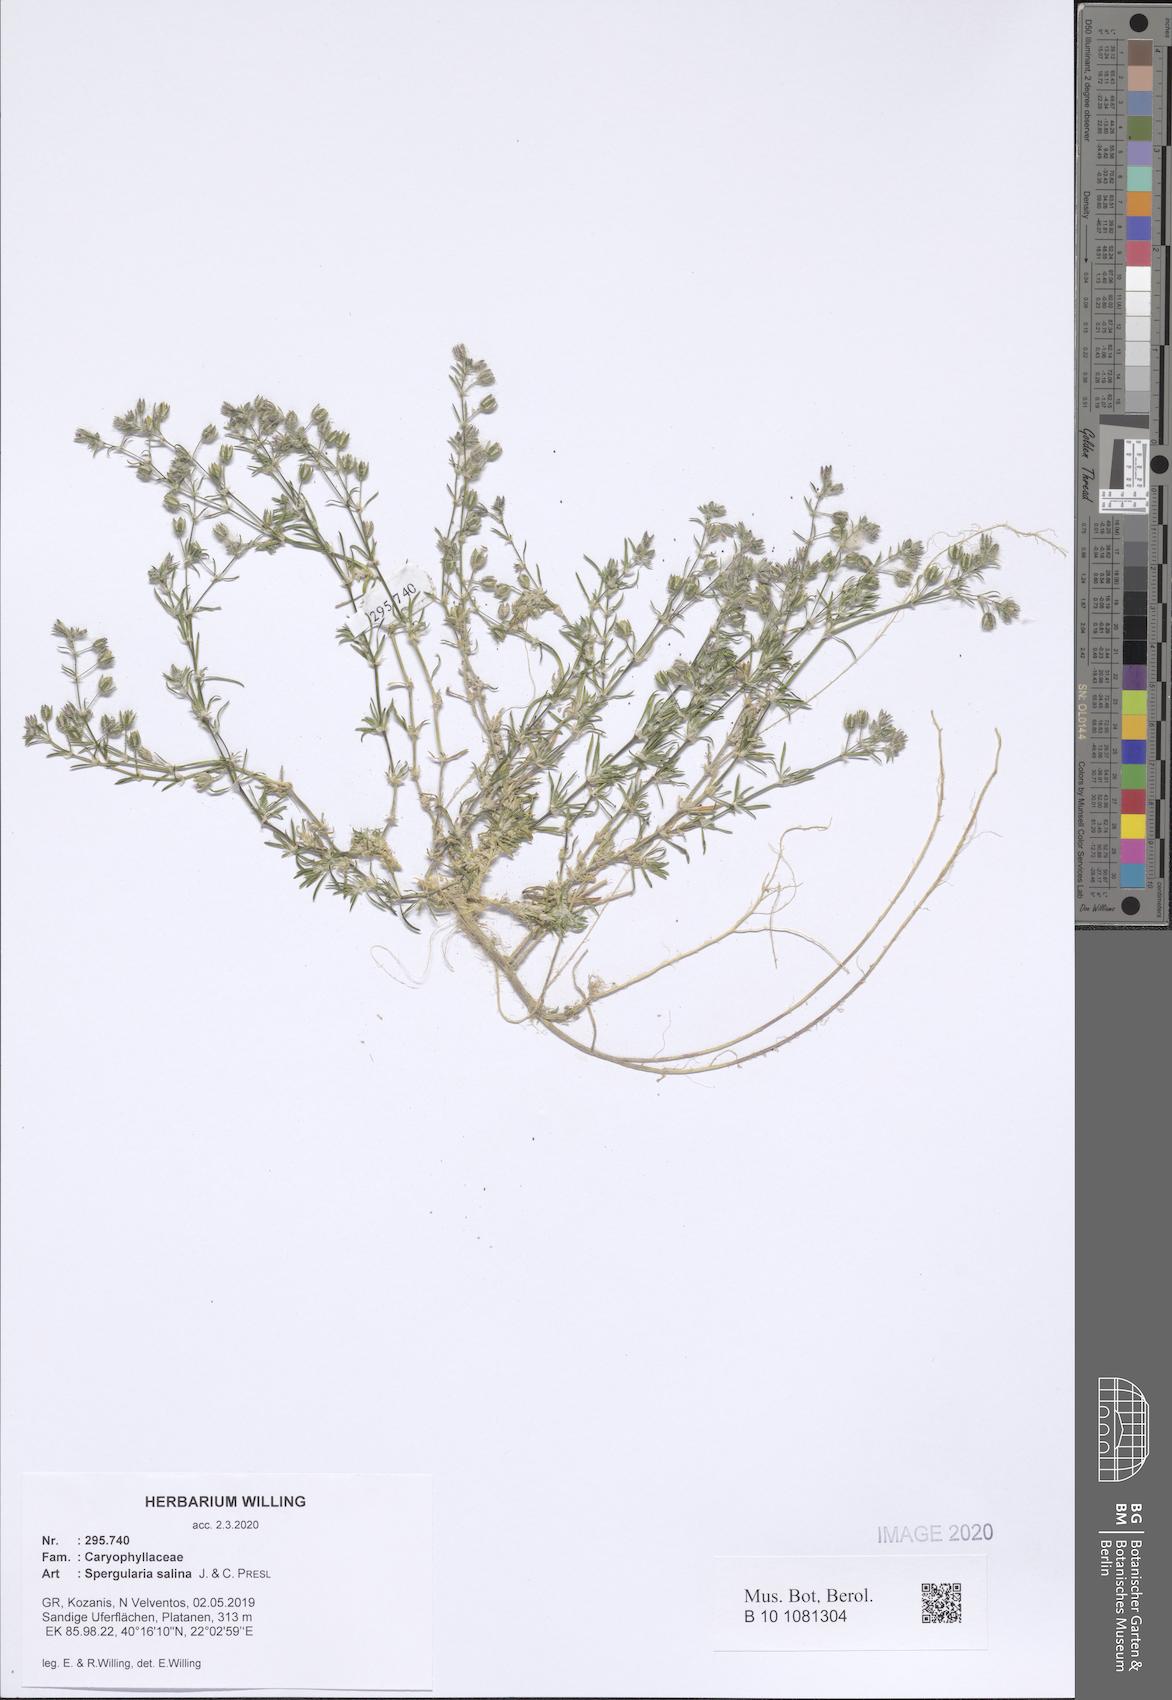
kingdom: Plantae
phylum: Tracheophyta
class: Magnoliopsida
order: Caryophyllales
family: Caryophyllaceae
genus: Spergularia
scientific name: Spergularia marina
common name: Lesser sea-spurrey
